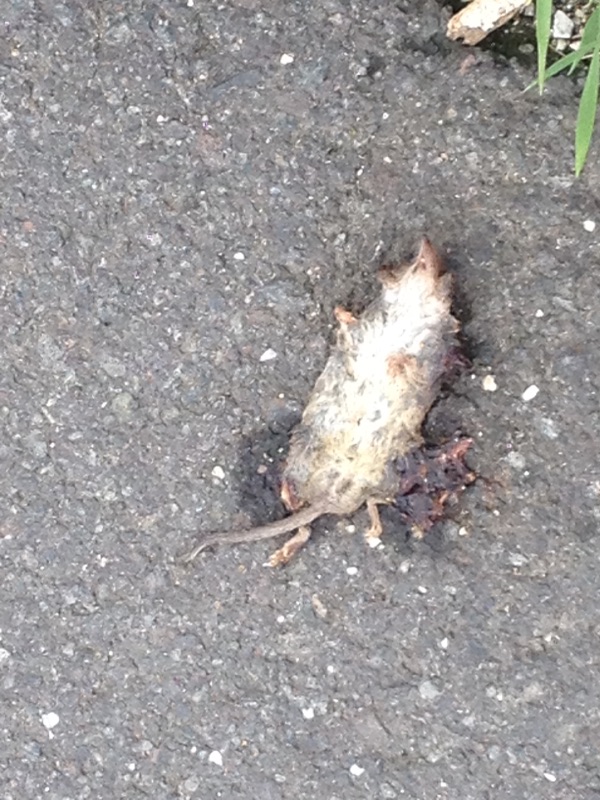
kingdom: Animalia
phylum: Chordata
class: Mammalia
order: Soricomorpha
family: Soricidae
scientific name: Soricidae
